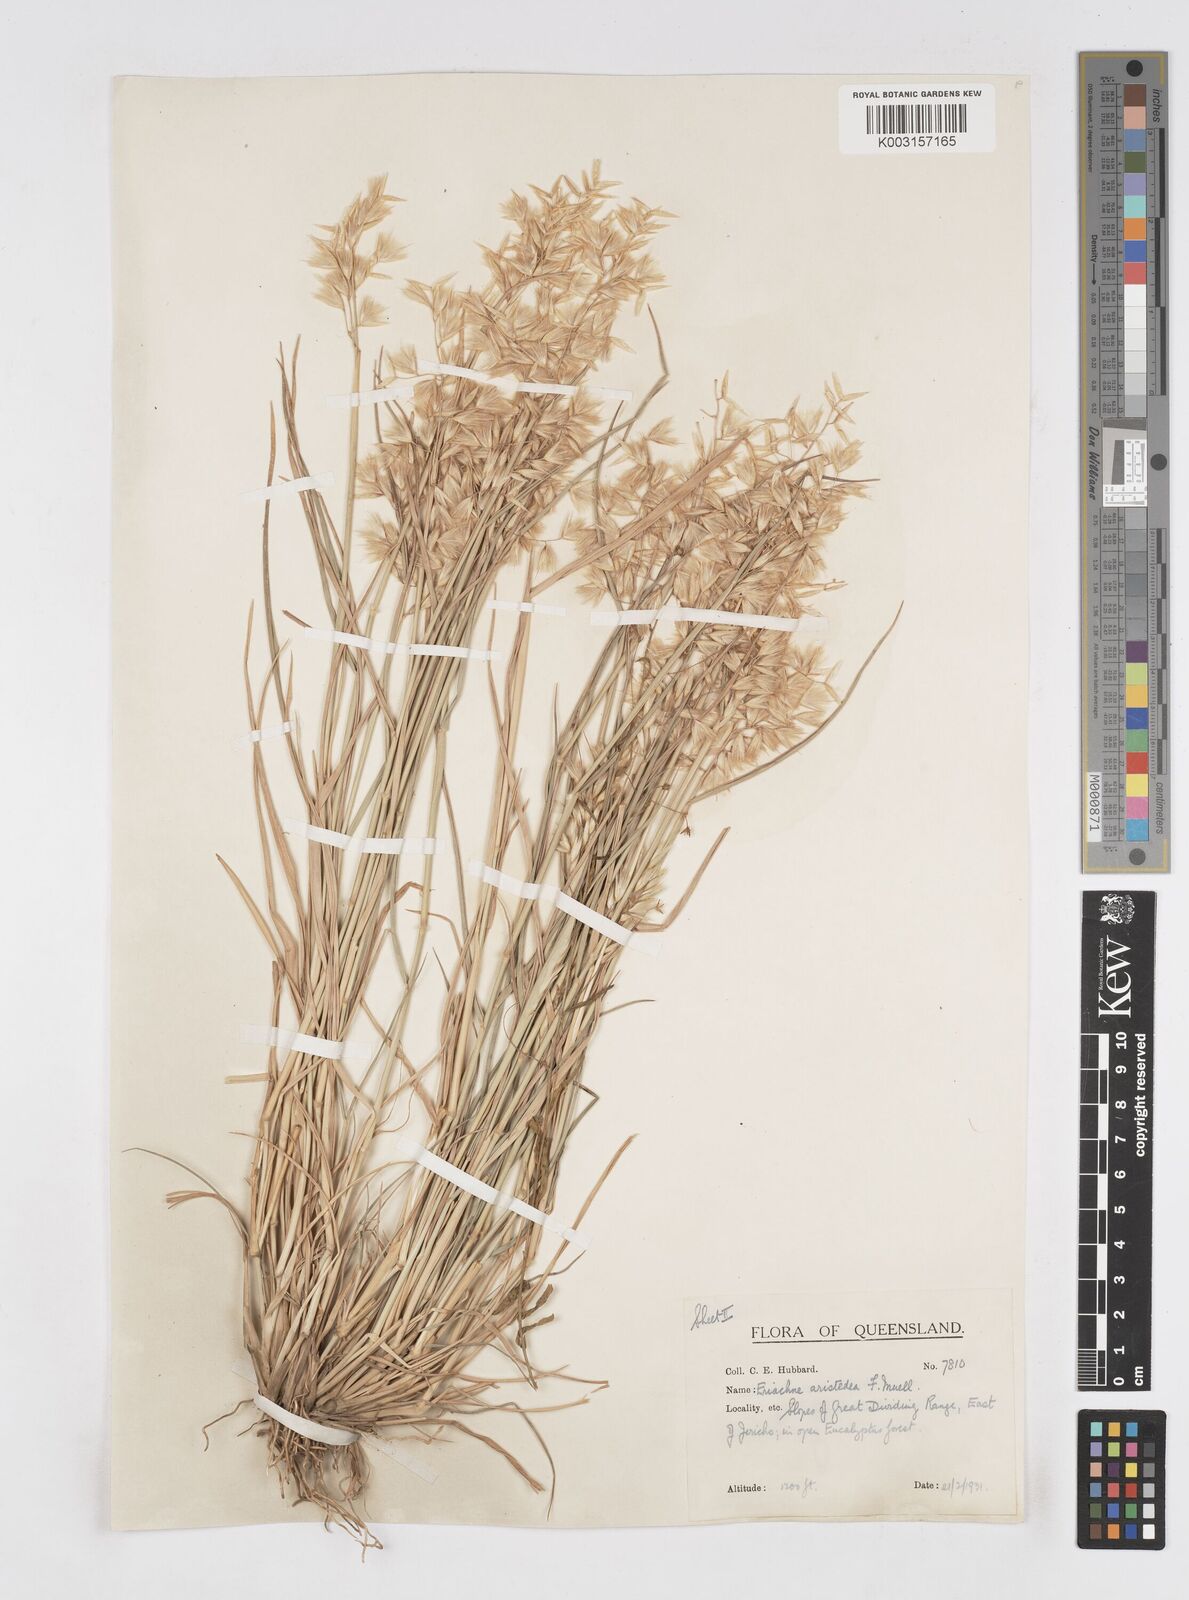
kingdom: Plantae
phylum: Tracheophyta
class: Liliopsida
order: Poales
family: Poaceae
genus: Eriachne
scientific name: Eriachne aristidea
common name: Three-awn wanderrie grass
